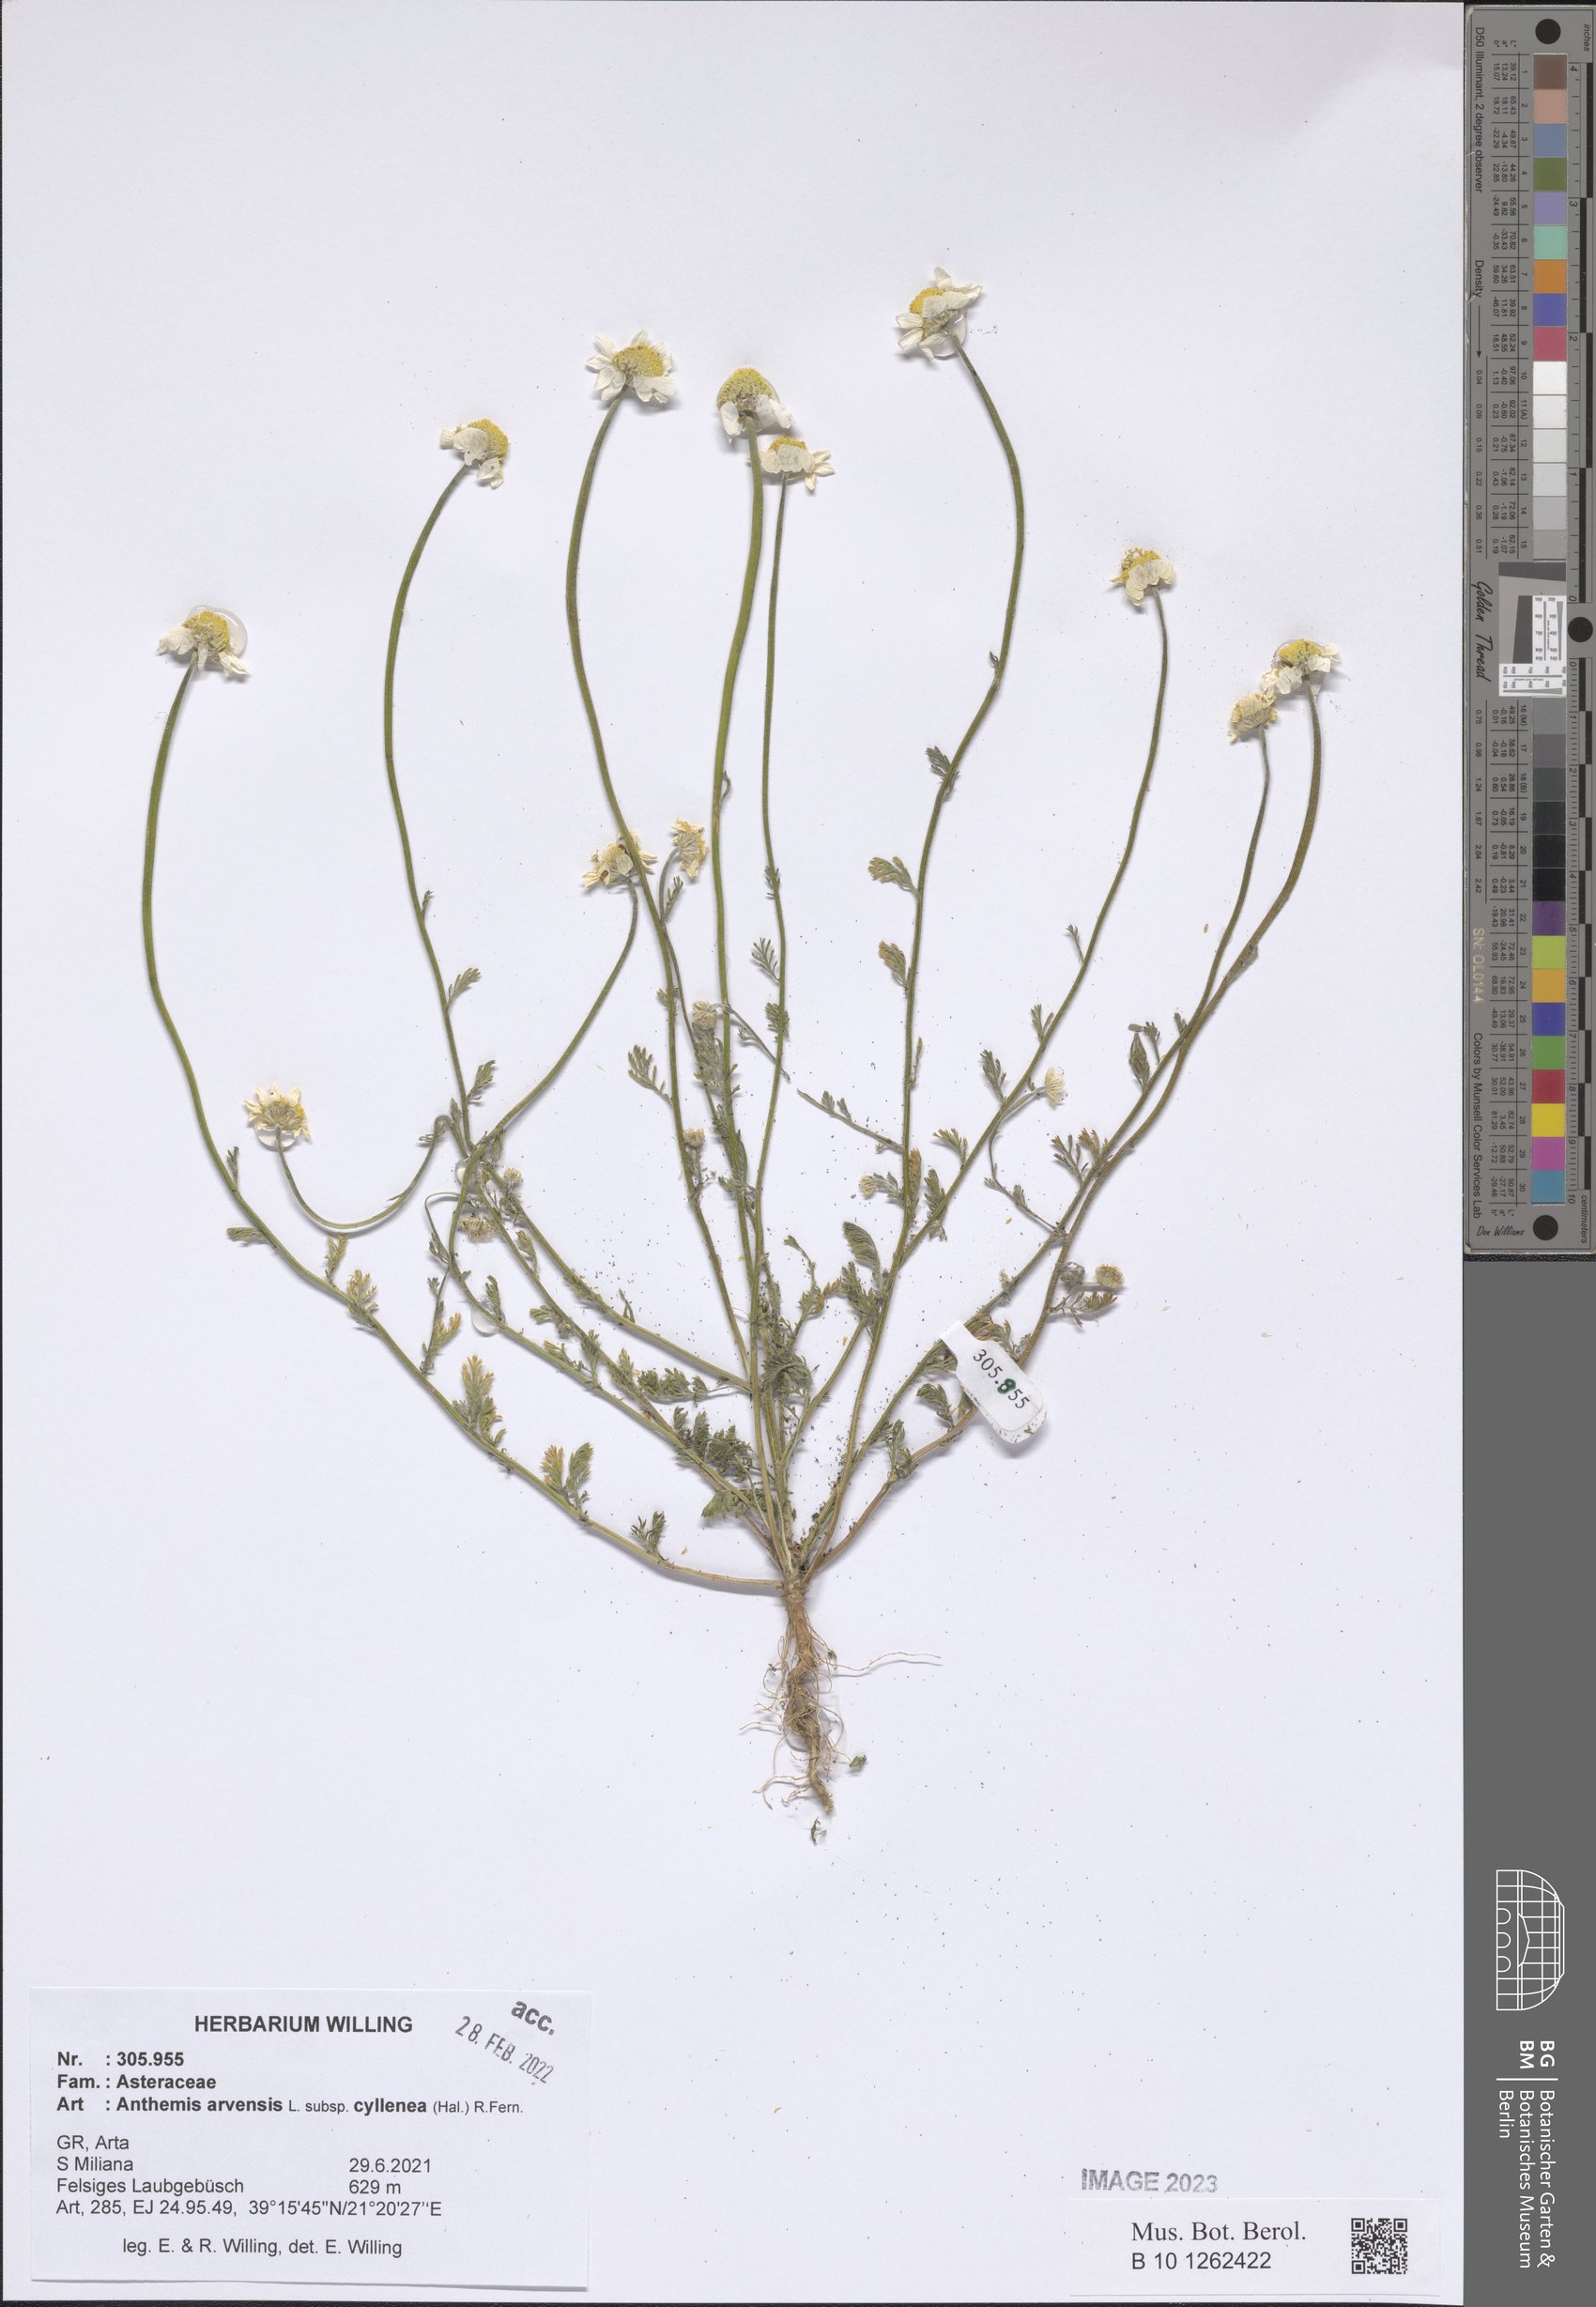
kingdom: Plantae
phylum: Tracheophyta
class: Magnoliopsida
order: Asterales
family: Asteraceae
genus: Anthemis
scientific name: Anthemis arvensis
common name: Corn chamomile
